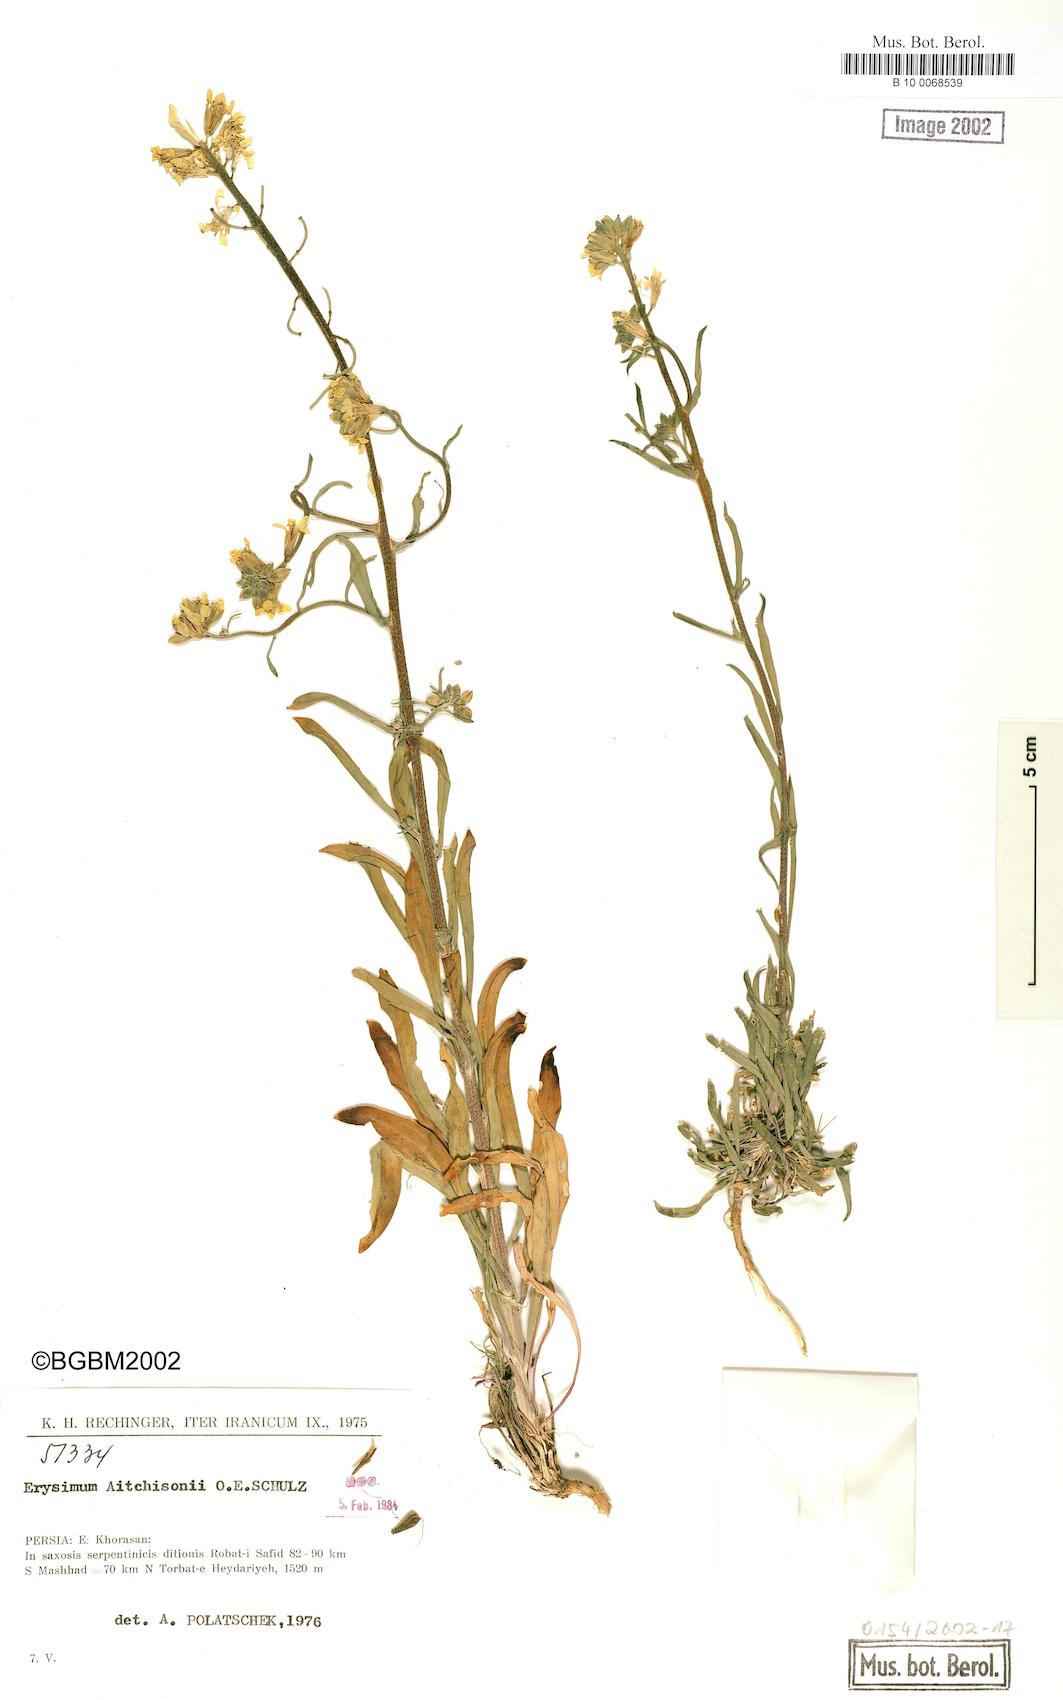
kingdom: Plantae
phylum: Tracheophyta
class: Magnoliopsida
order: Brassicales
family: Brassicaceae
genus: Erysimum
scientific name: Erysimum aitchisonii
